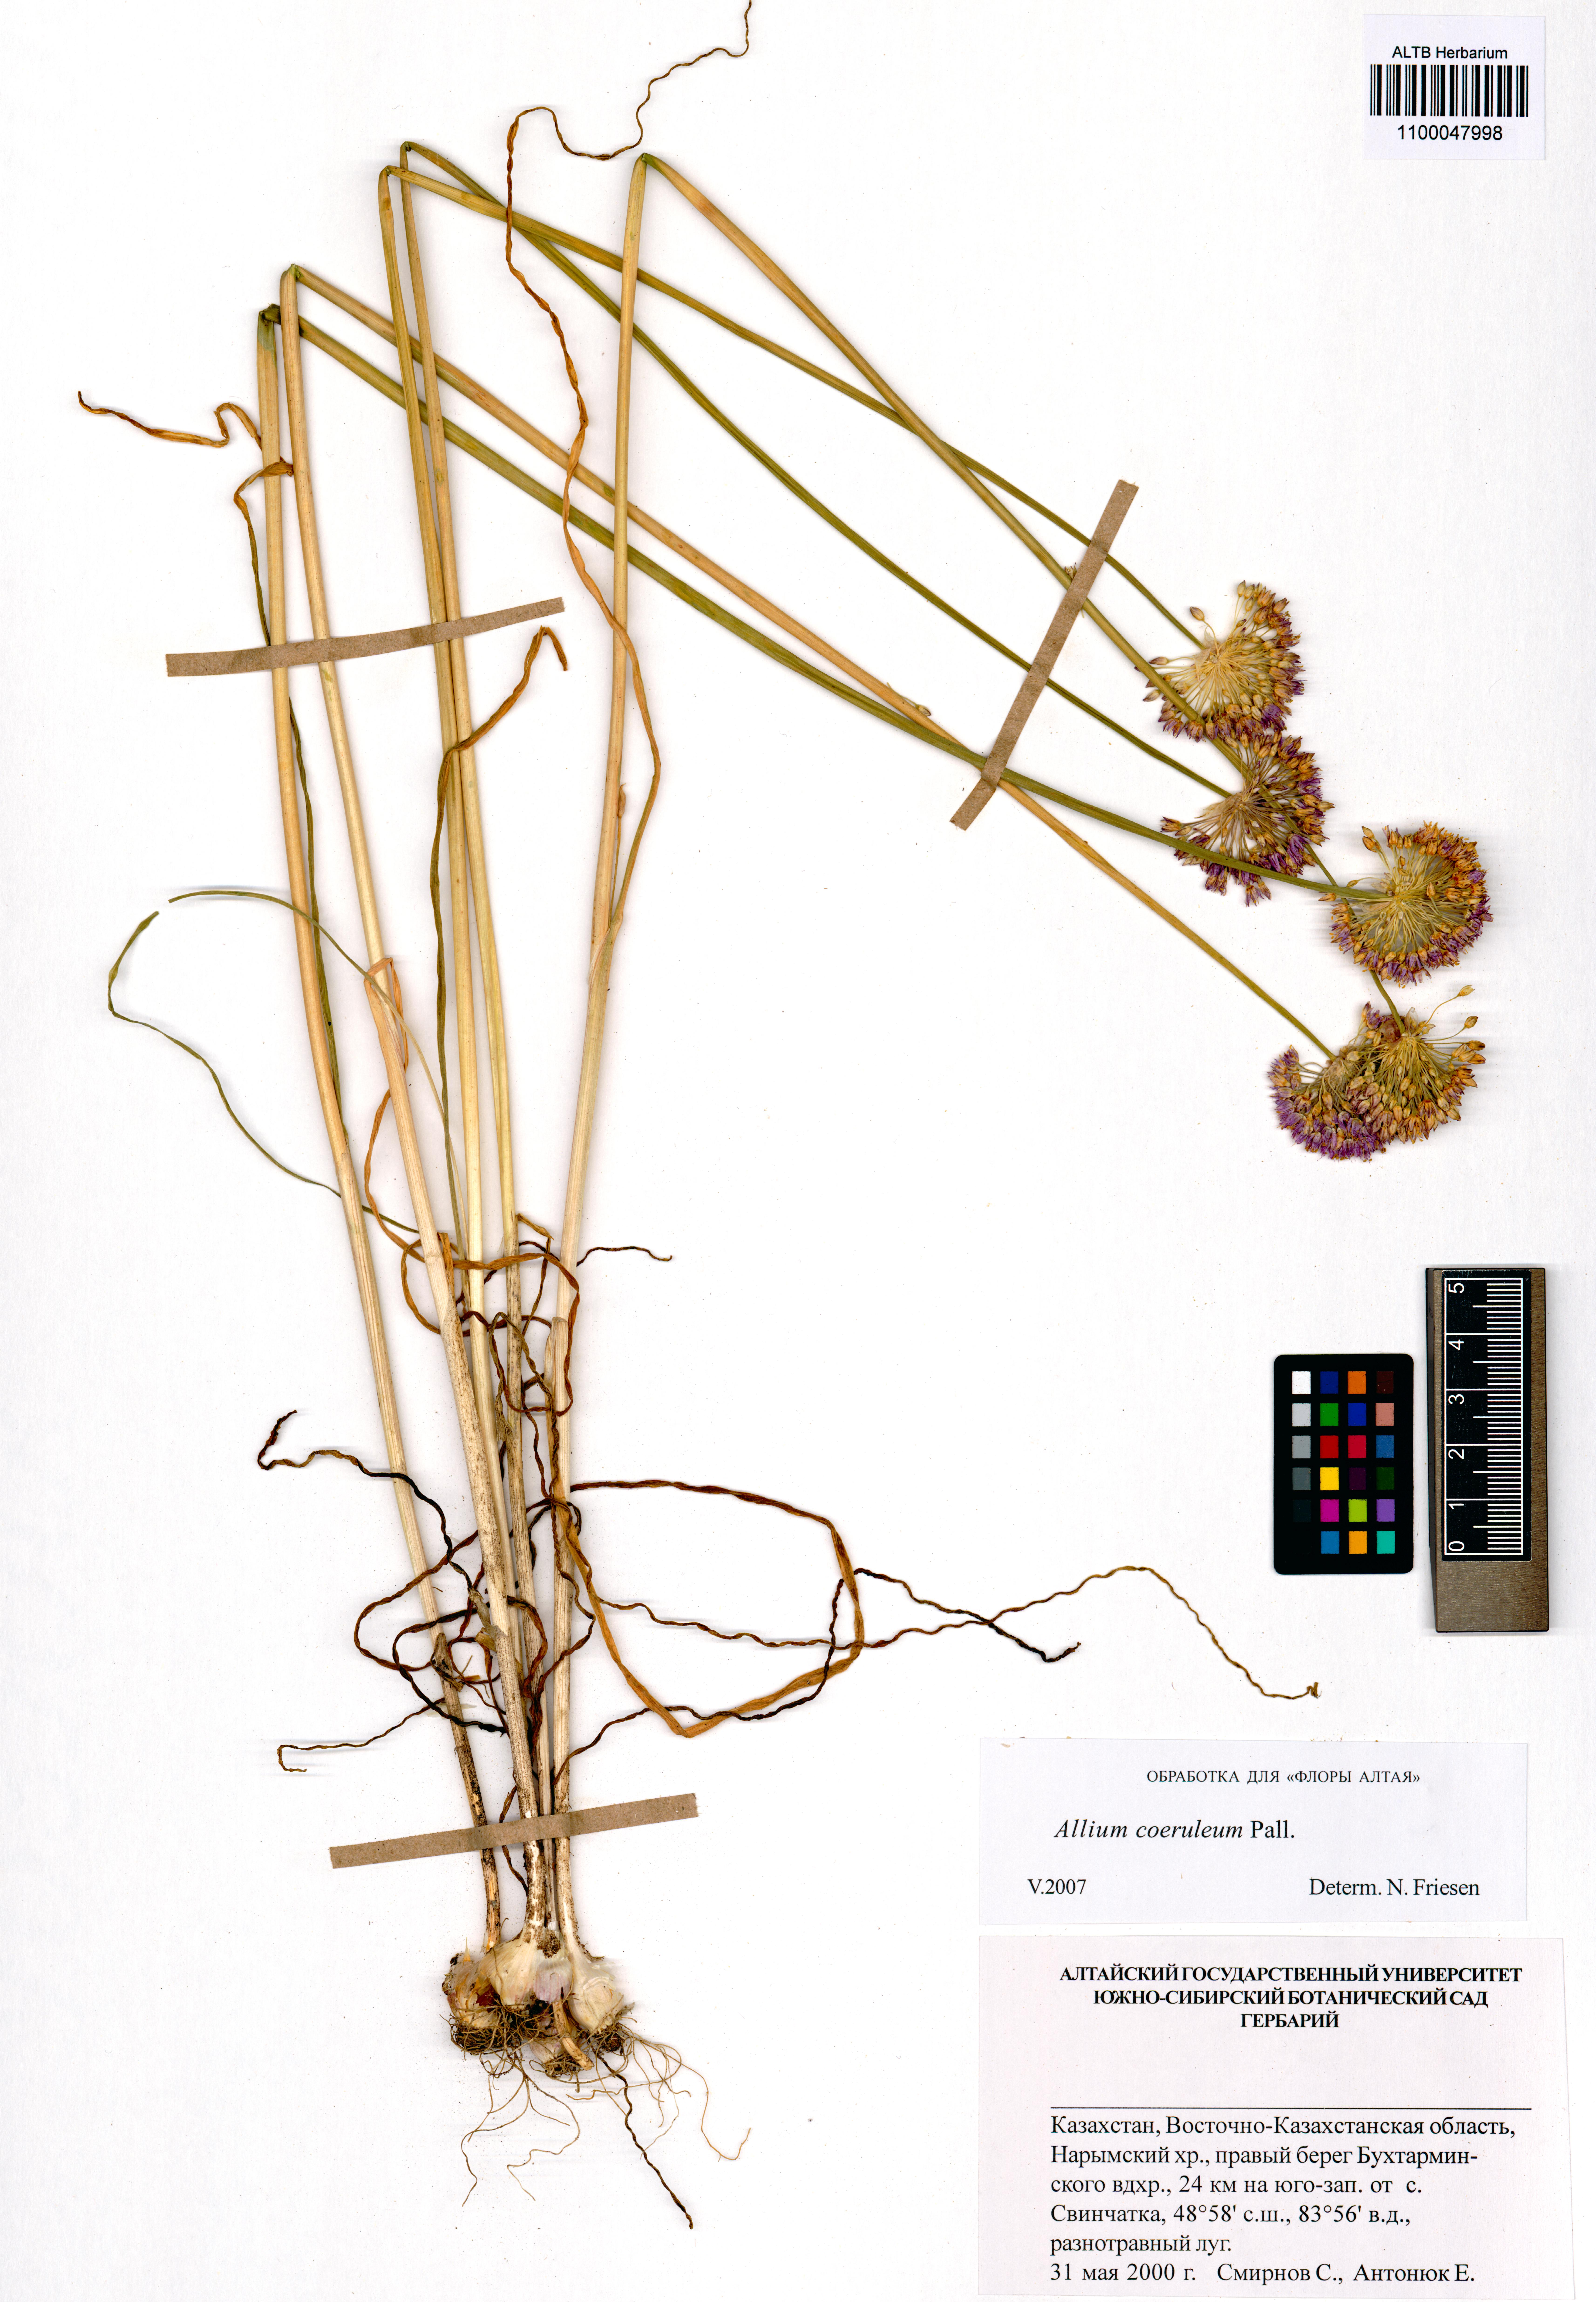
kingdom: Plantae
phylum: Tracheophyta
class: Liliopsida
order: Asparagales
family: Amaryllidaceae
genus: Allium
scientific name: Allium caeruleum
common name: Blue-of-the-heavens
